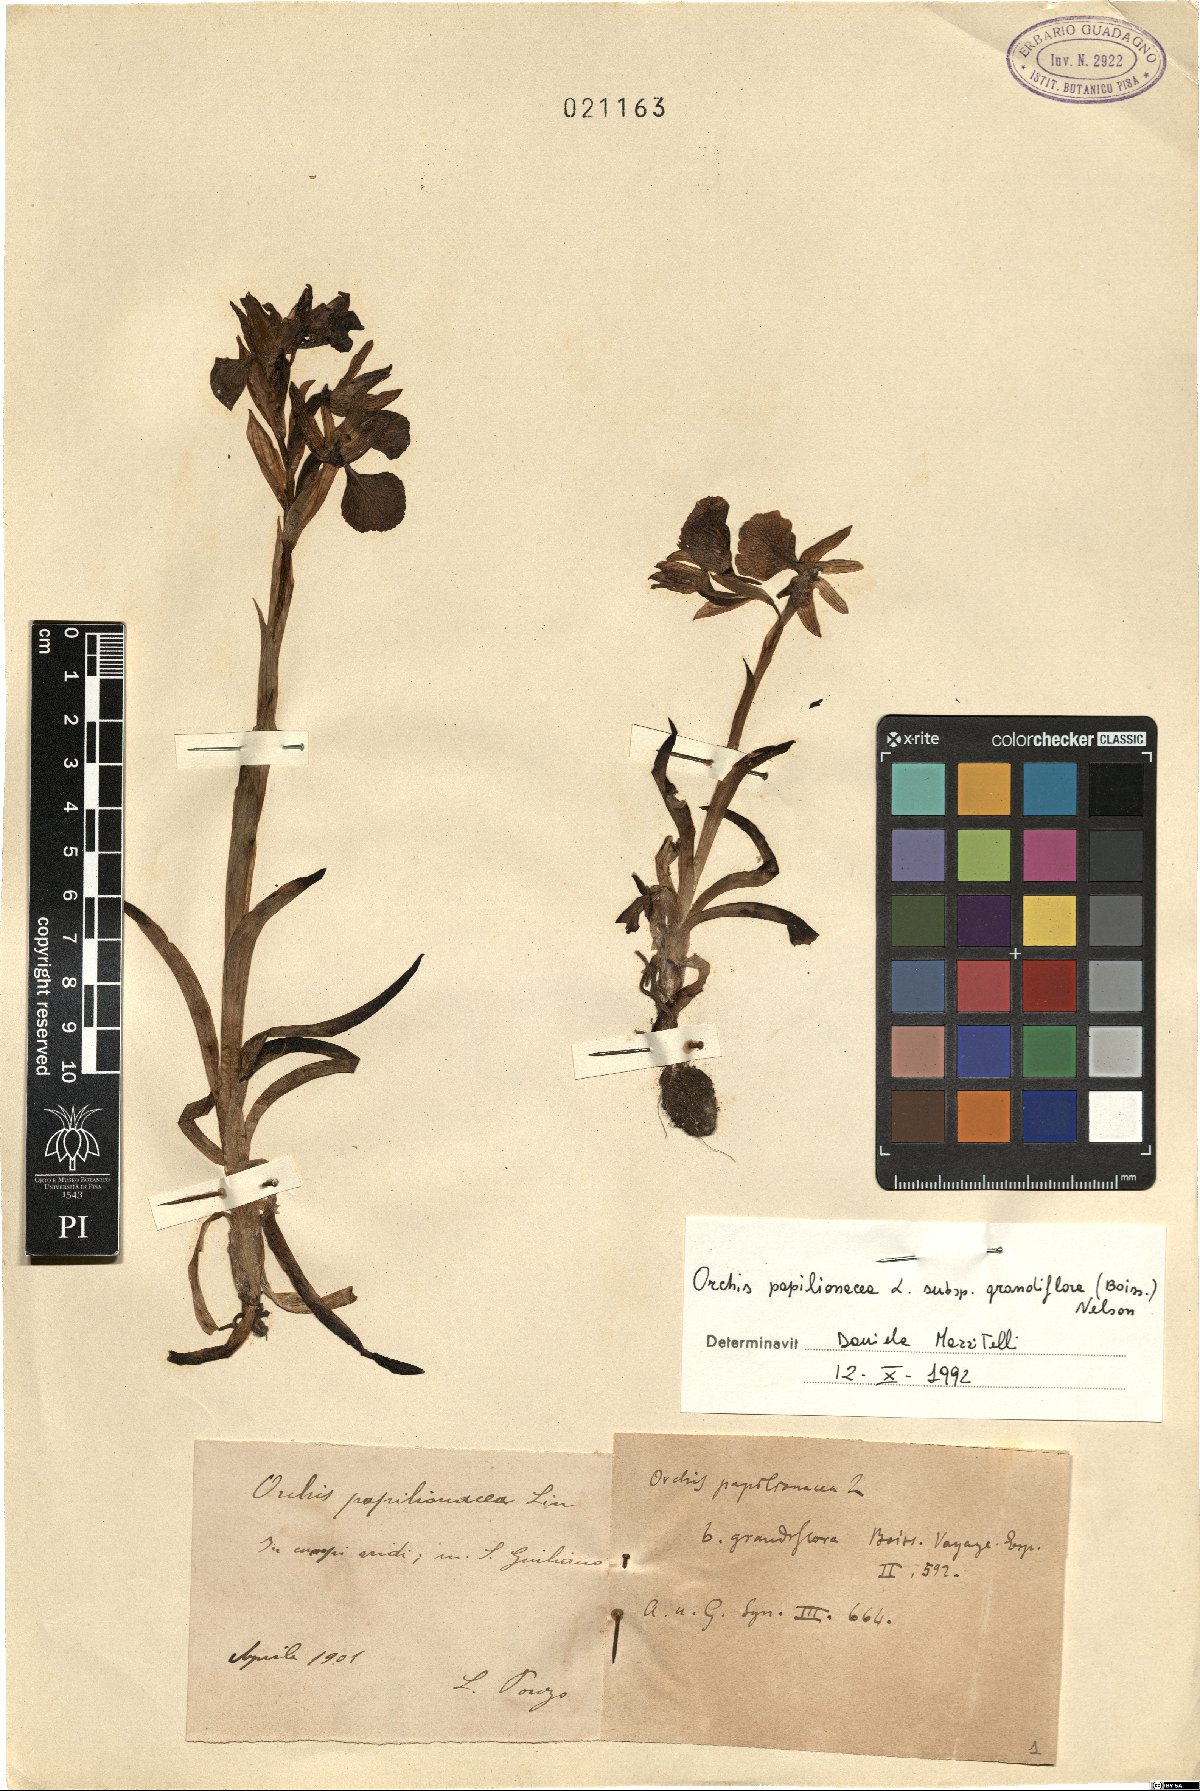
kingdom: Plantae
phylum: Tracheophyta
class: Liliopsida
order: Asparagales
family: Orchidaceae
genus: Anacamptis
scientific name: Anacamptis papilionacea
